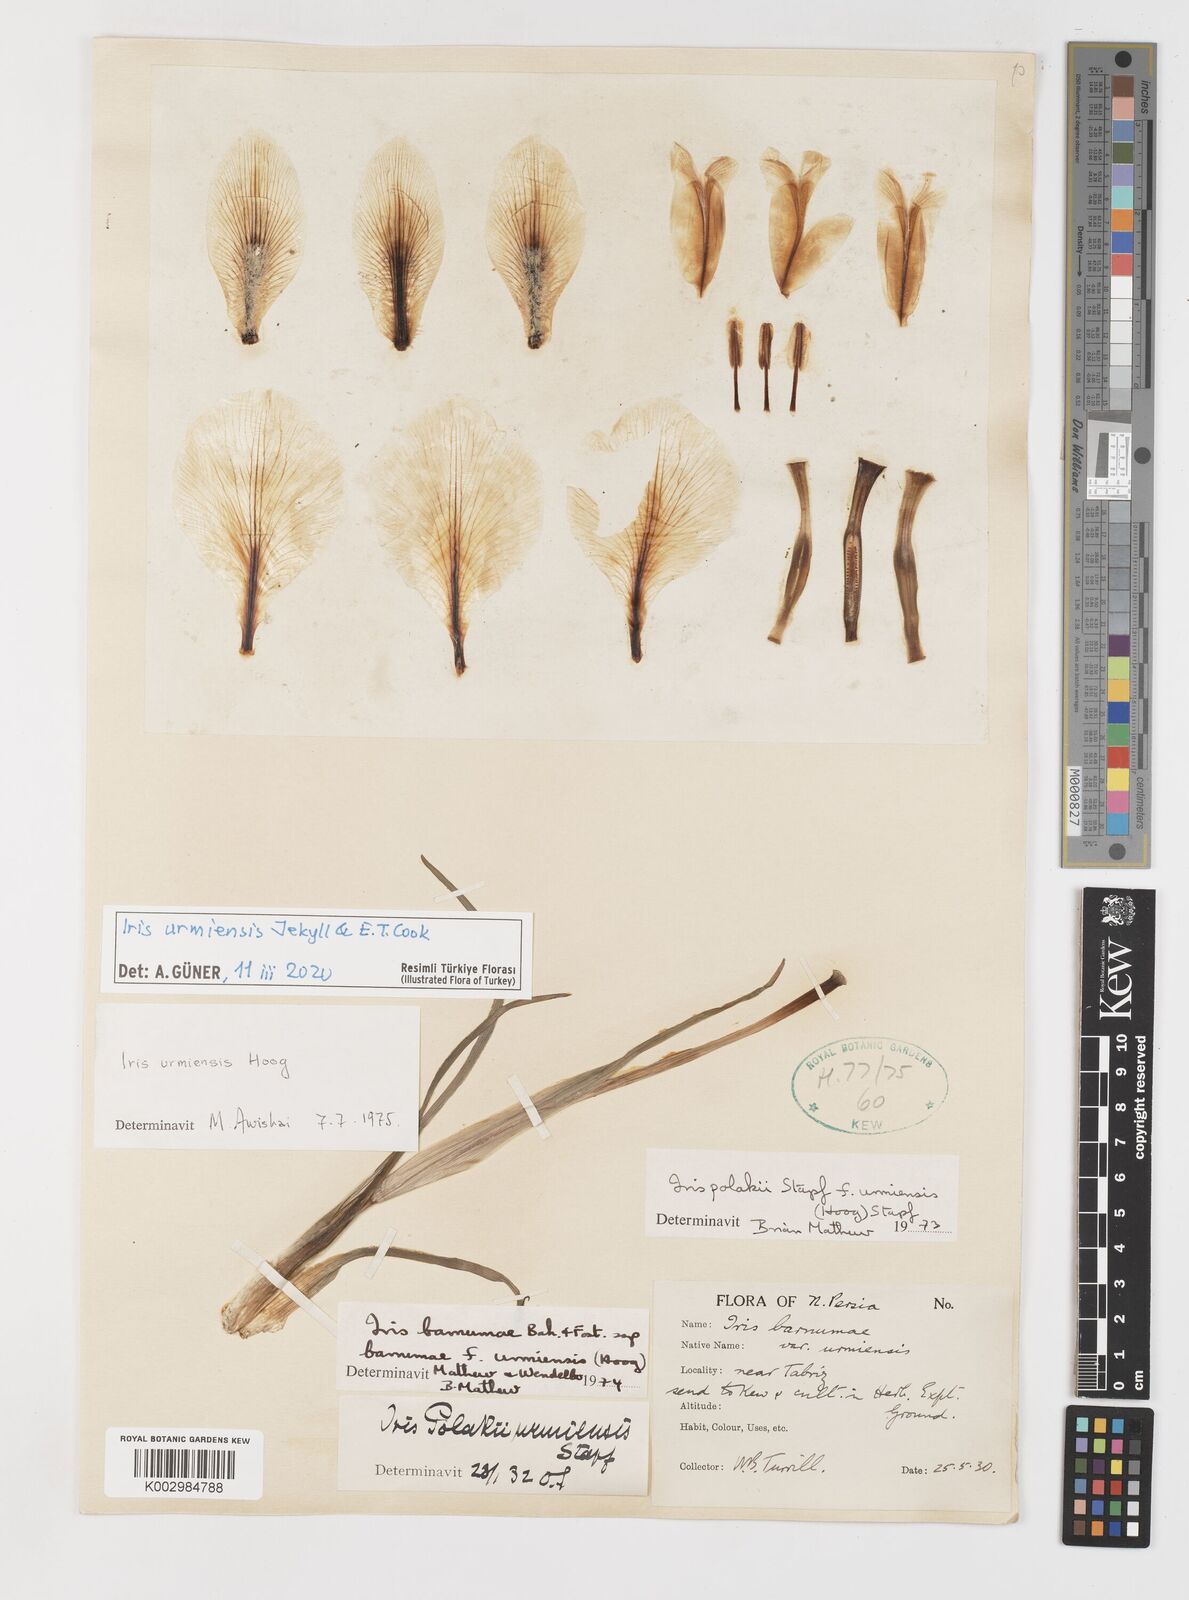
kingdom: Plantae
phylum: Tracheophyta
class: Liliopsida
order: Asparagales
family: Iridaceae
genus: Iris
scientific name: Iris urmiensis
